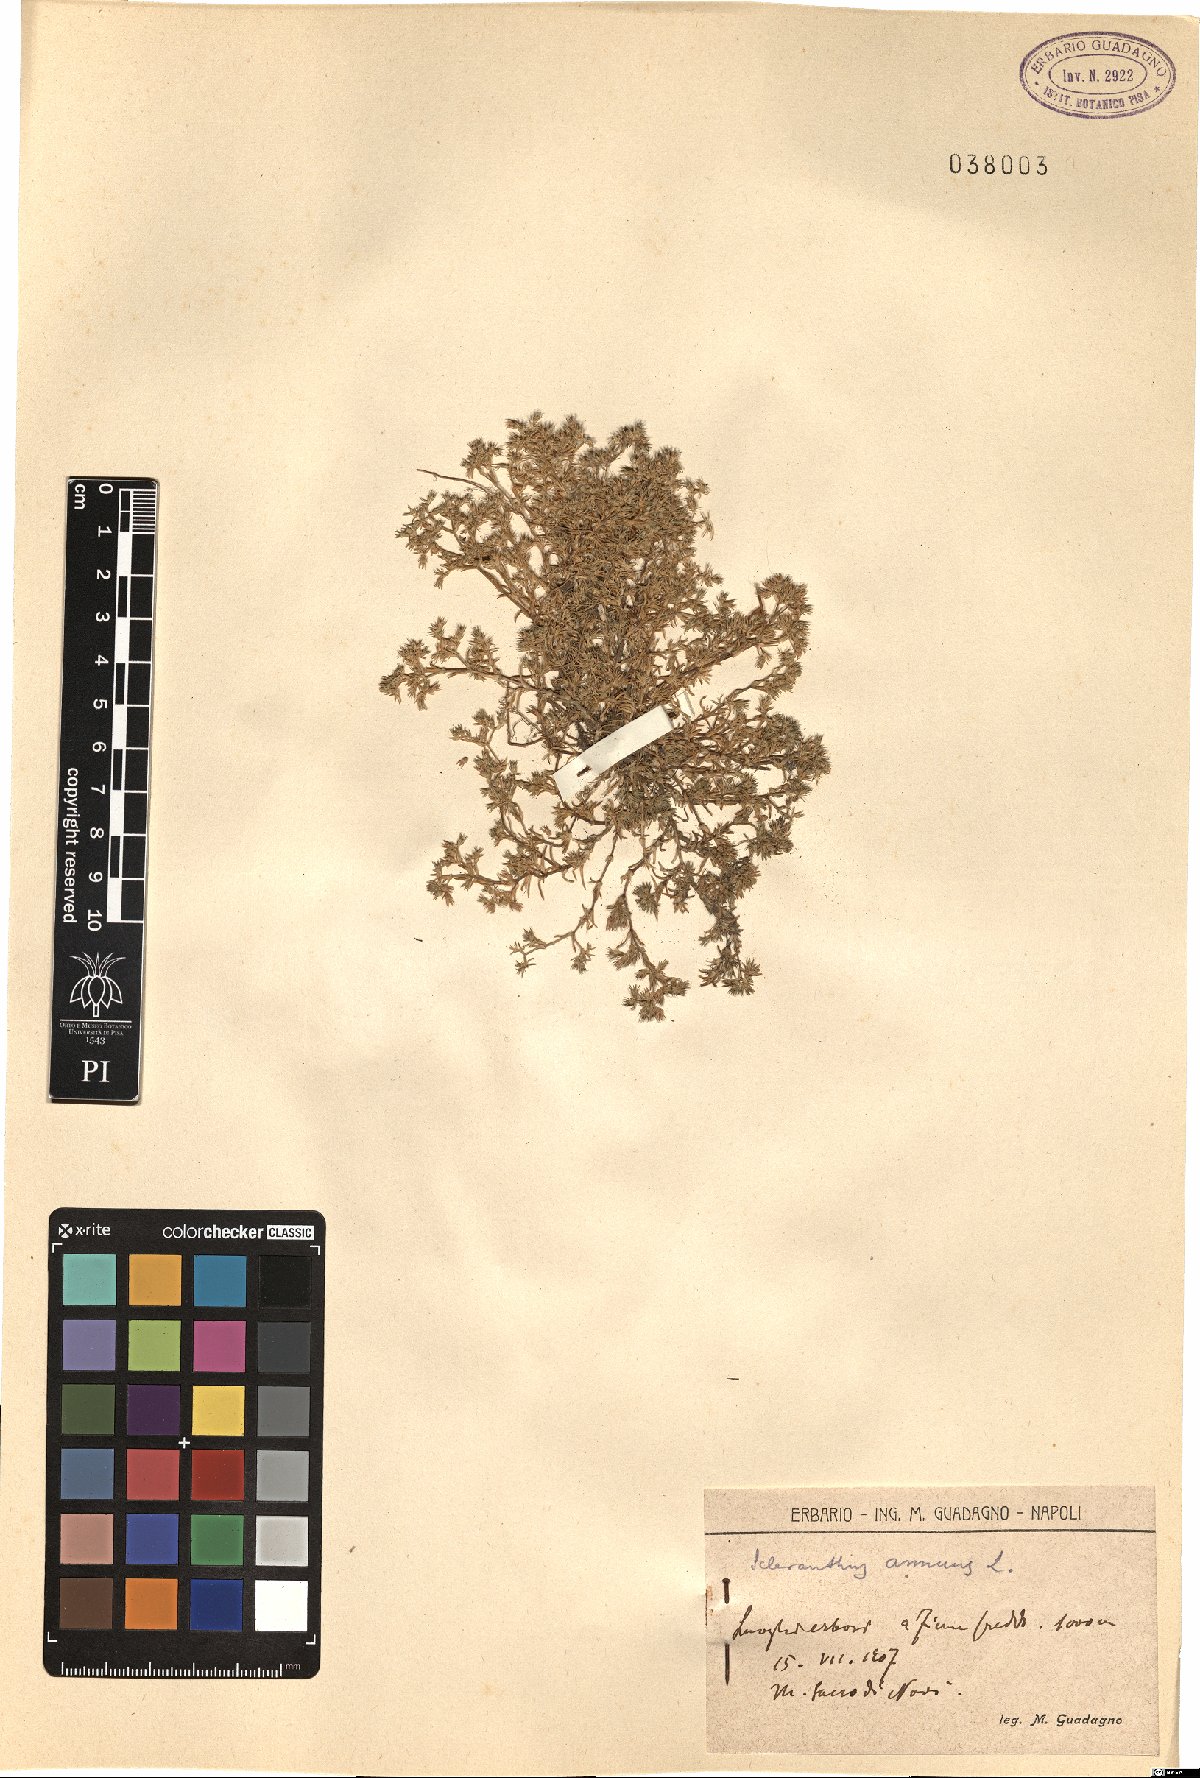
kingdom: Plantae
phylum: Tracheophyta
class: Magnoliopsida
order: Caryophyllales
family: Caryophyllaceae
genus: Scleranthus
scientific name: Scleranthus annuus
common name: Annual knawel
